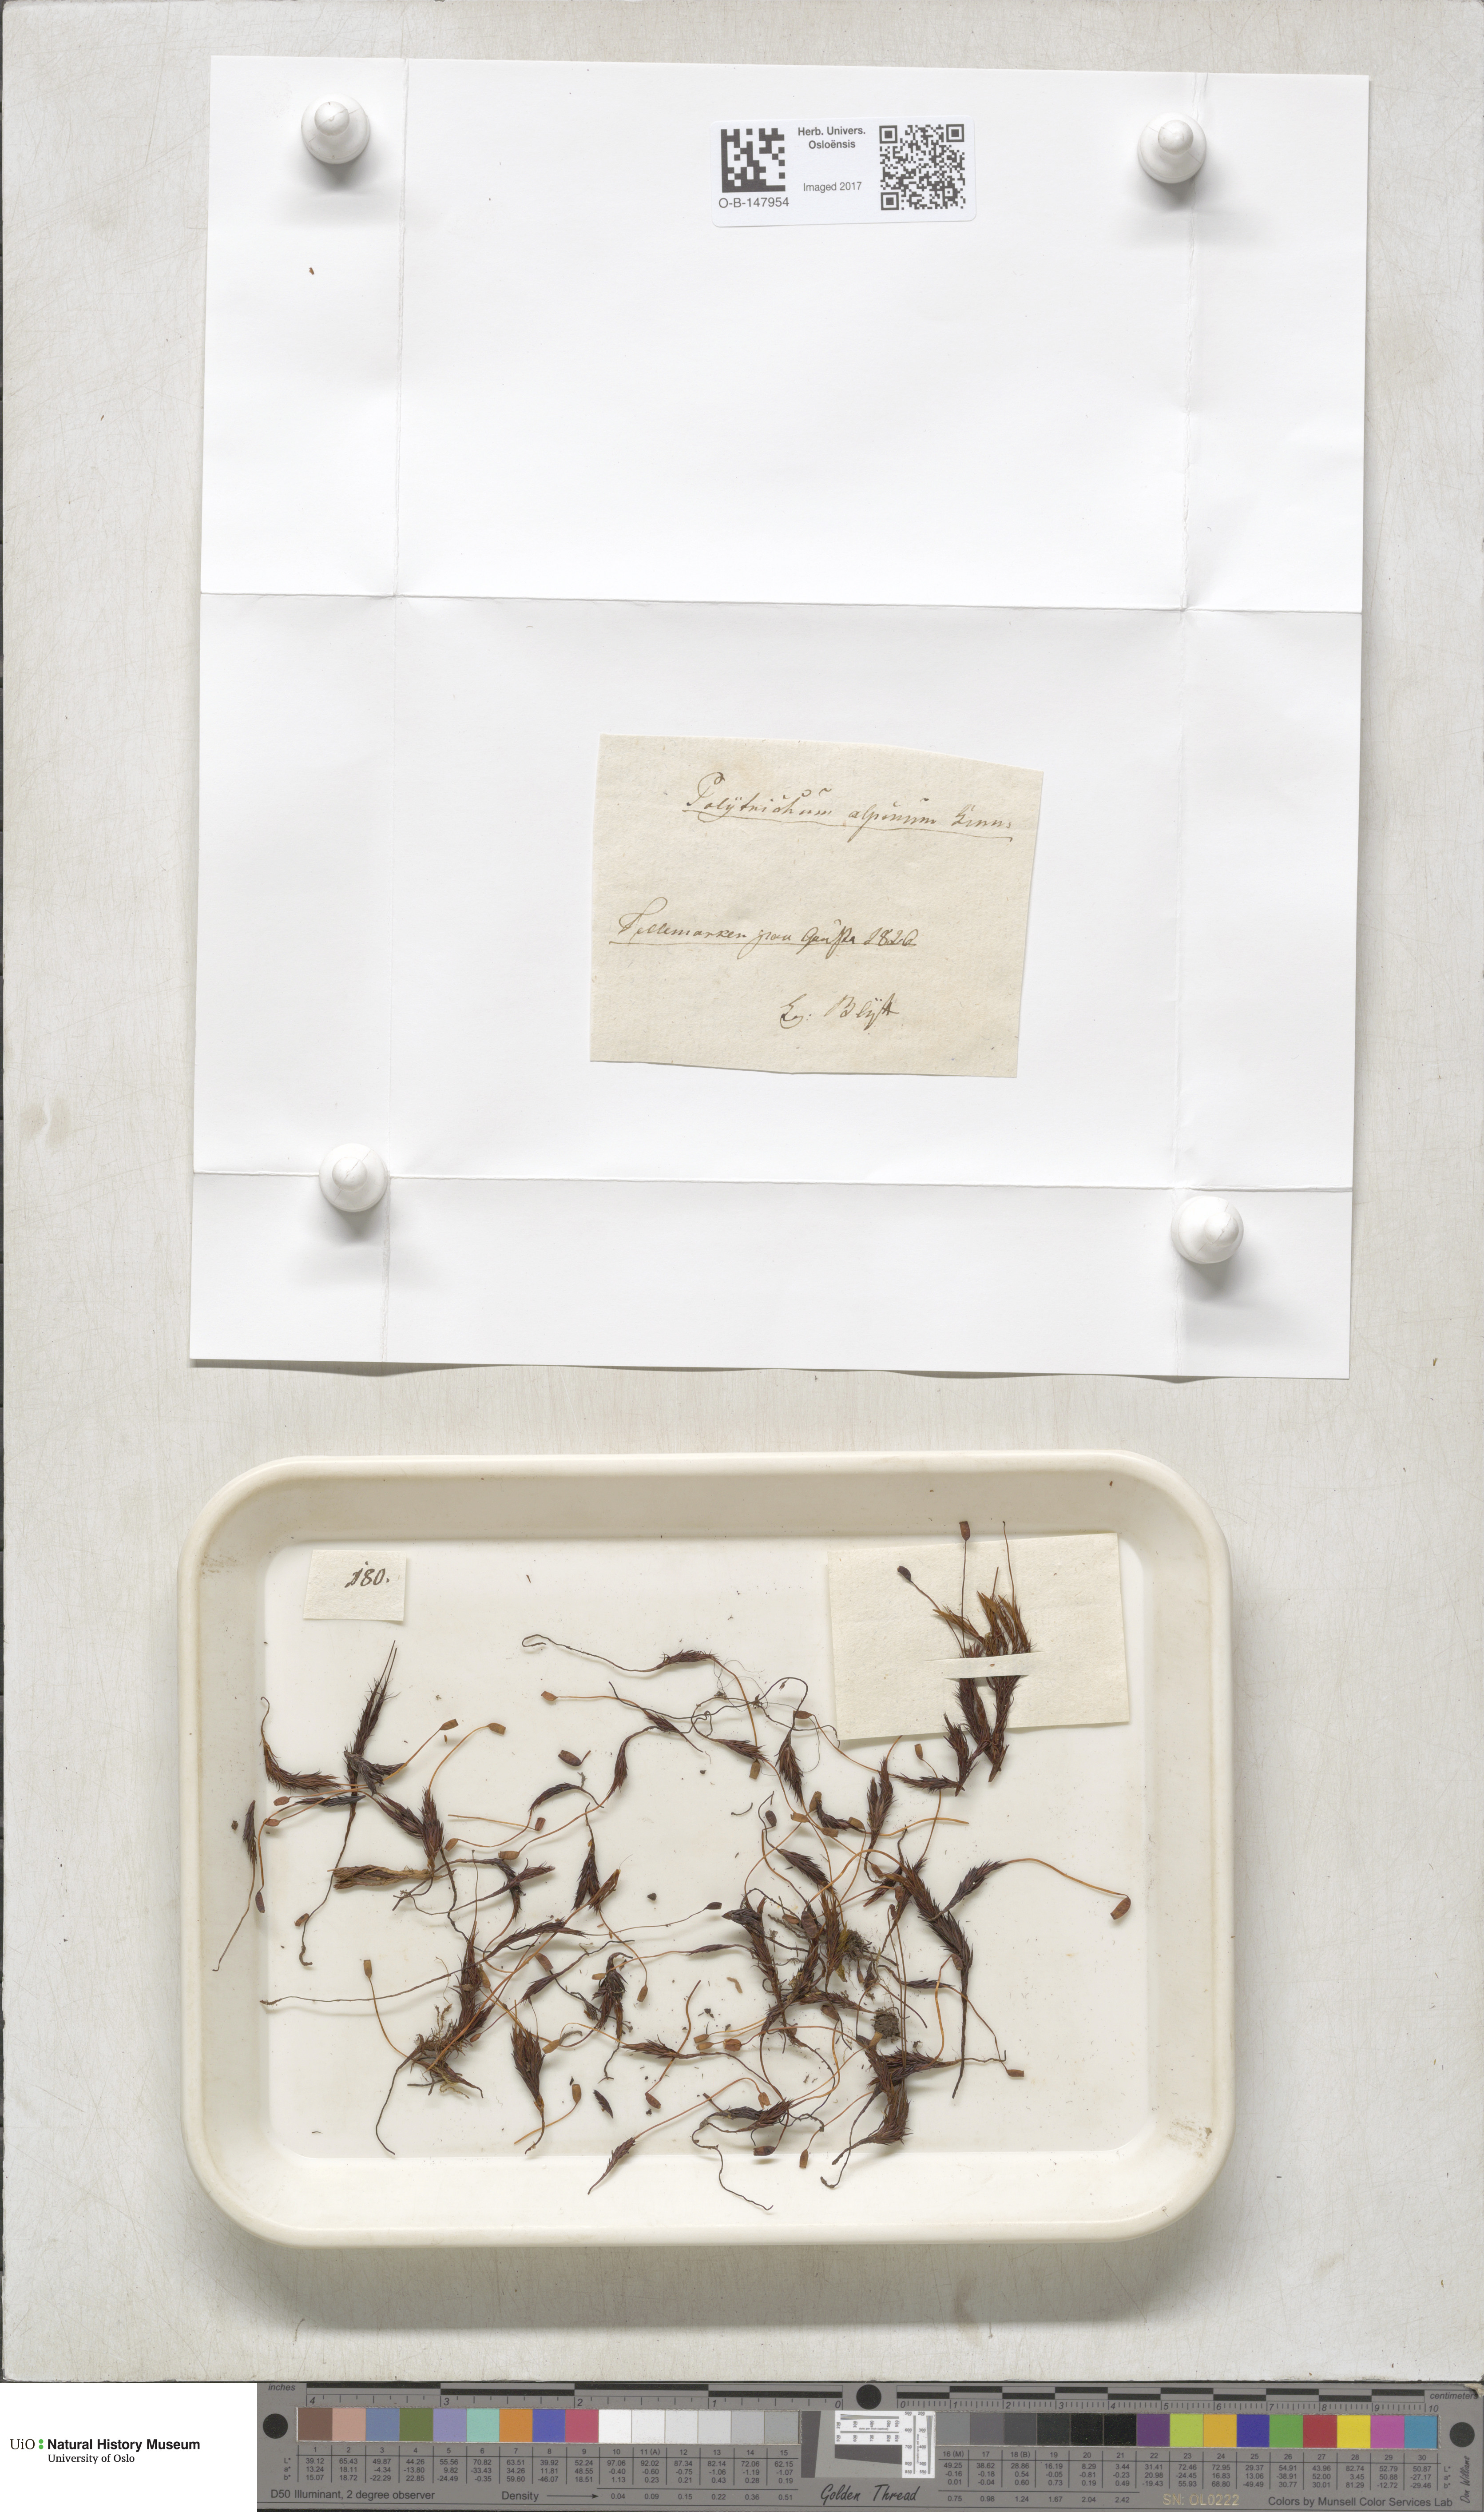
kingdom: Plantae
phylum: Bryophyta
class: Polytrichopsida
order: Polytrichales
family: Polytrichaceae
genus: Polytrichastrum
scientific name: Polytrichastrum alpinum
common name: Alpine haircap
